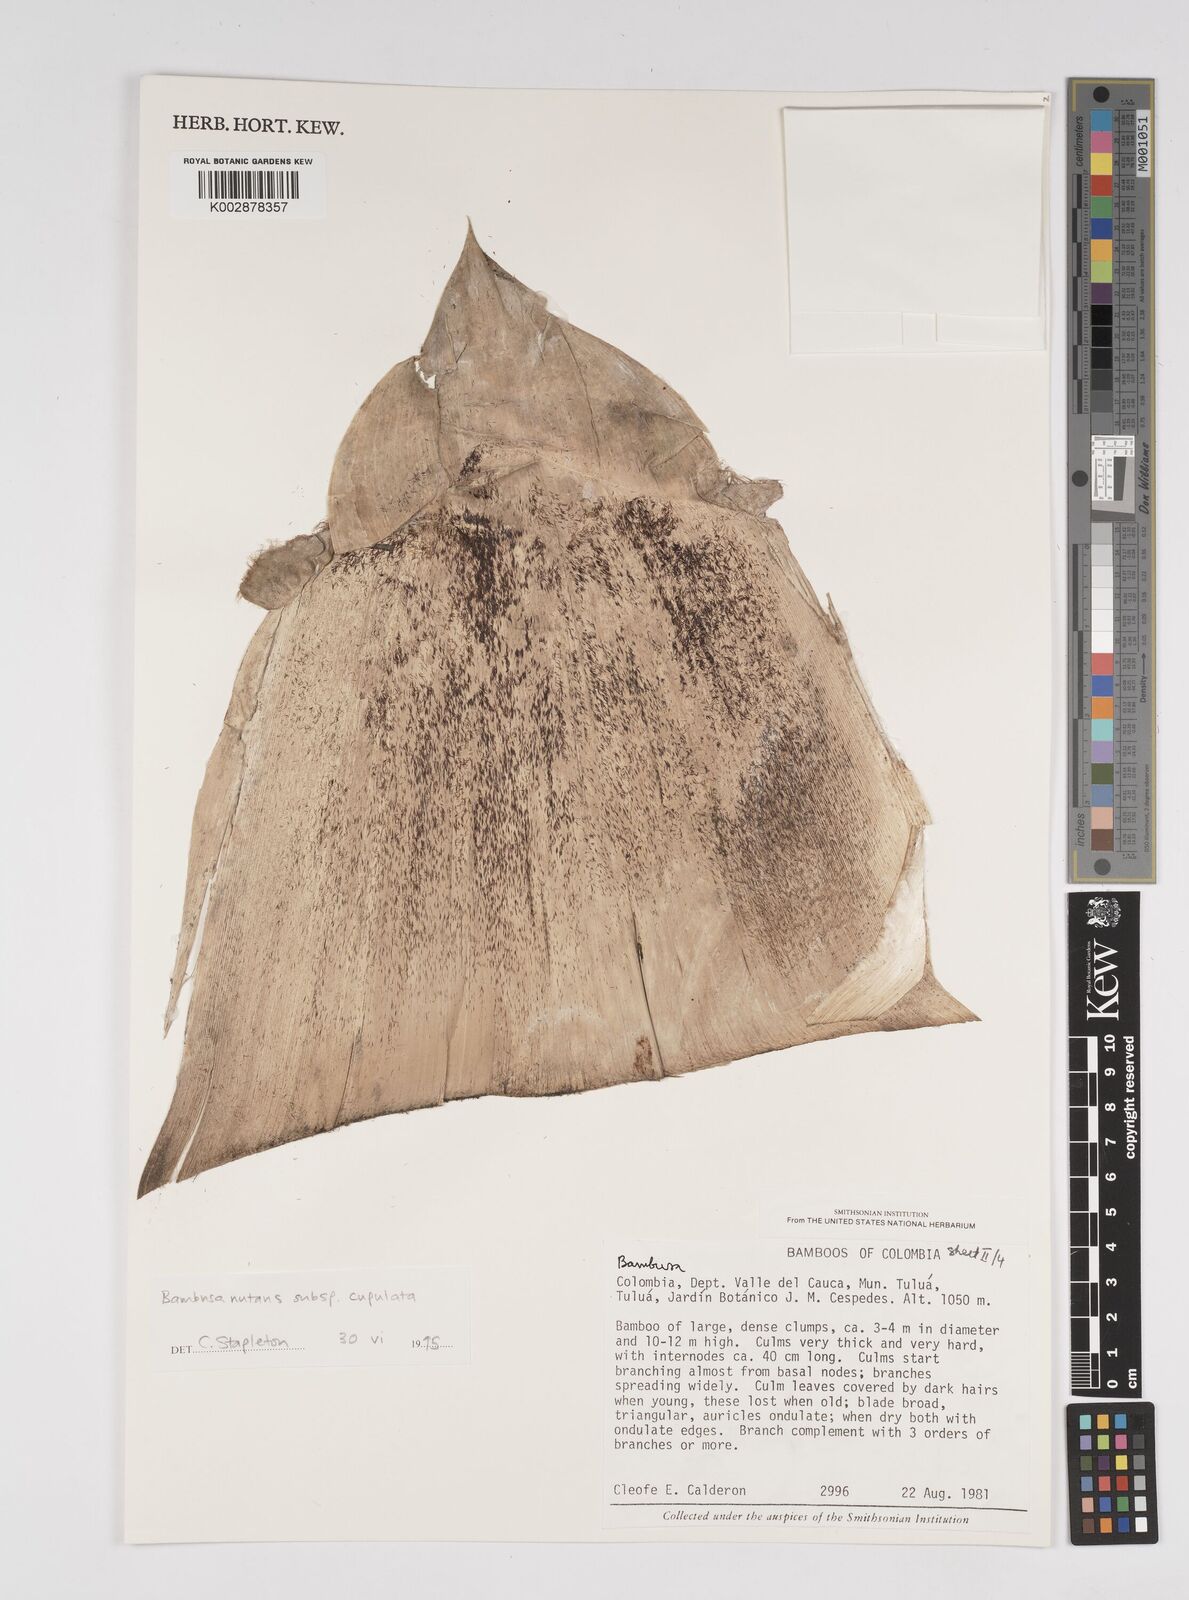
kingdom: Plantae
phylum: Tracheophyta
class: Liliopsida
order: Poales
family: Poaceae
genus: Bambusa
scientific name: Bambusa nutans
